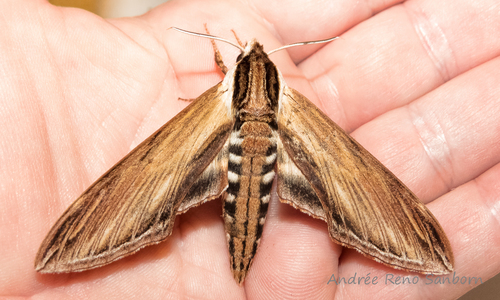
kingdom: Animalia
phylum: Arthropoda
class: Insecta
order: Lepidoptera
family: Sphingidae
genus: Sphinx
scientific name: Sphinx kalmiae
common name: Laurel sphinx
